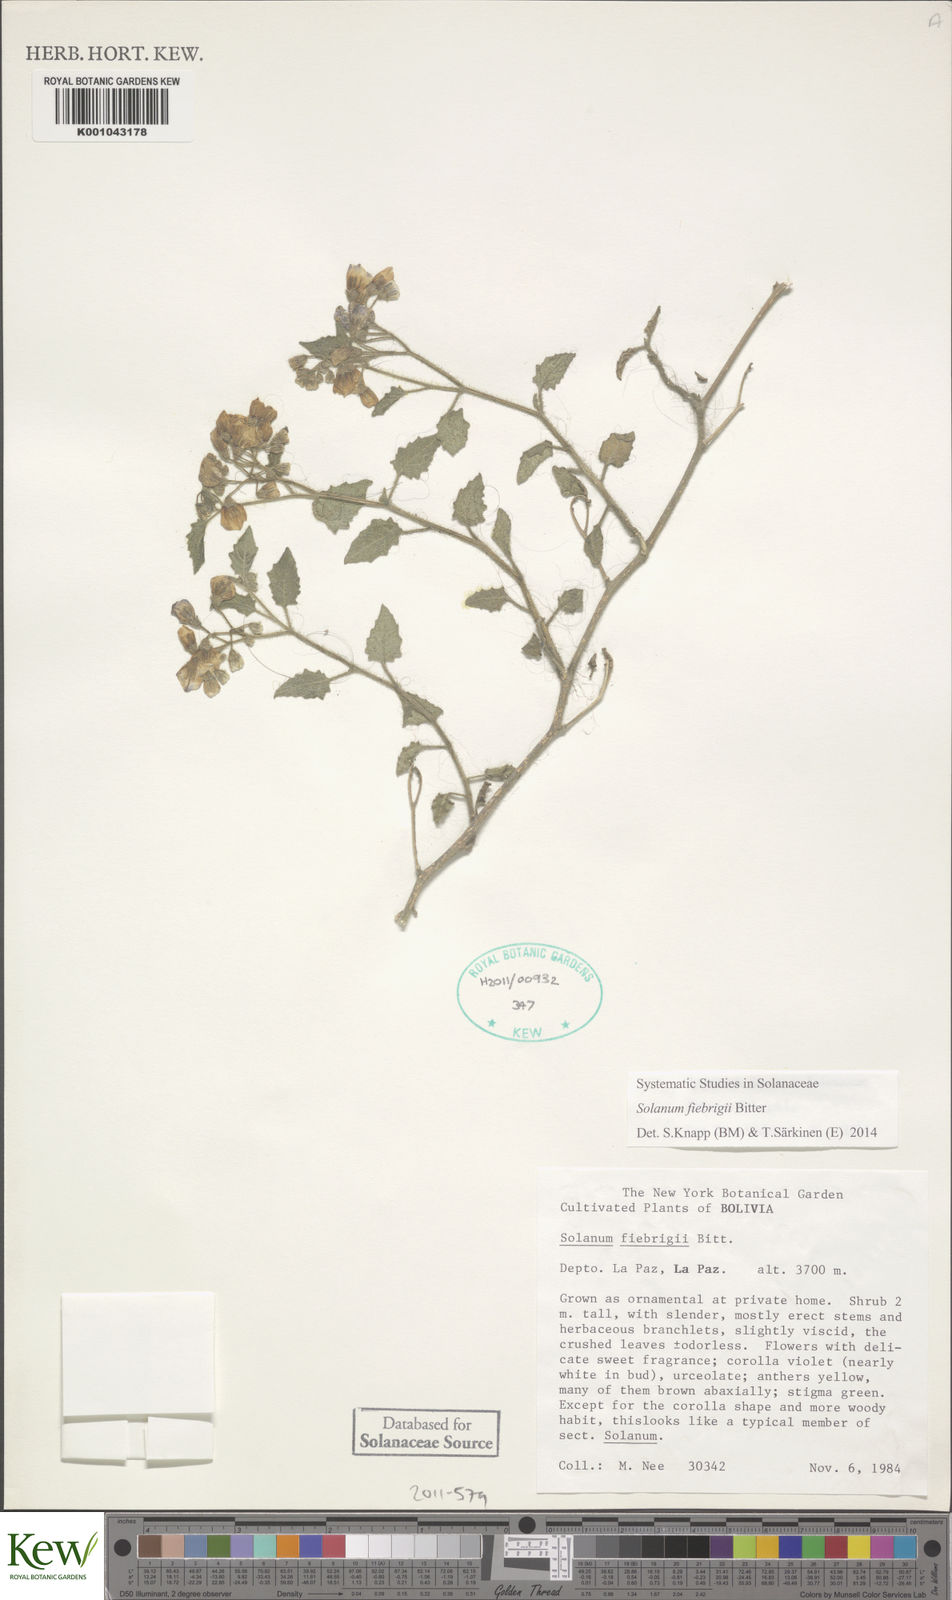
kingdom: Plantae
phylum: Tracheophyta
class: Magnoliopsida
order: Solanales
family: Solanaceae
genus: Solanum
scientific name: Solanum fiebrigii
